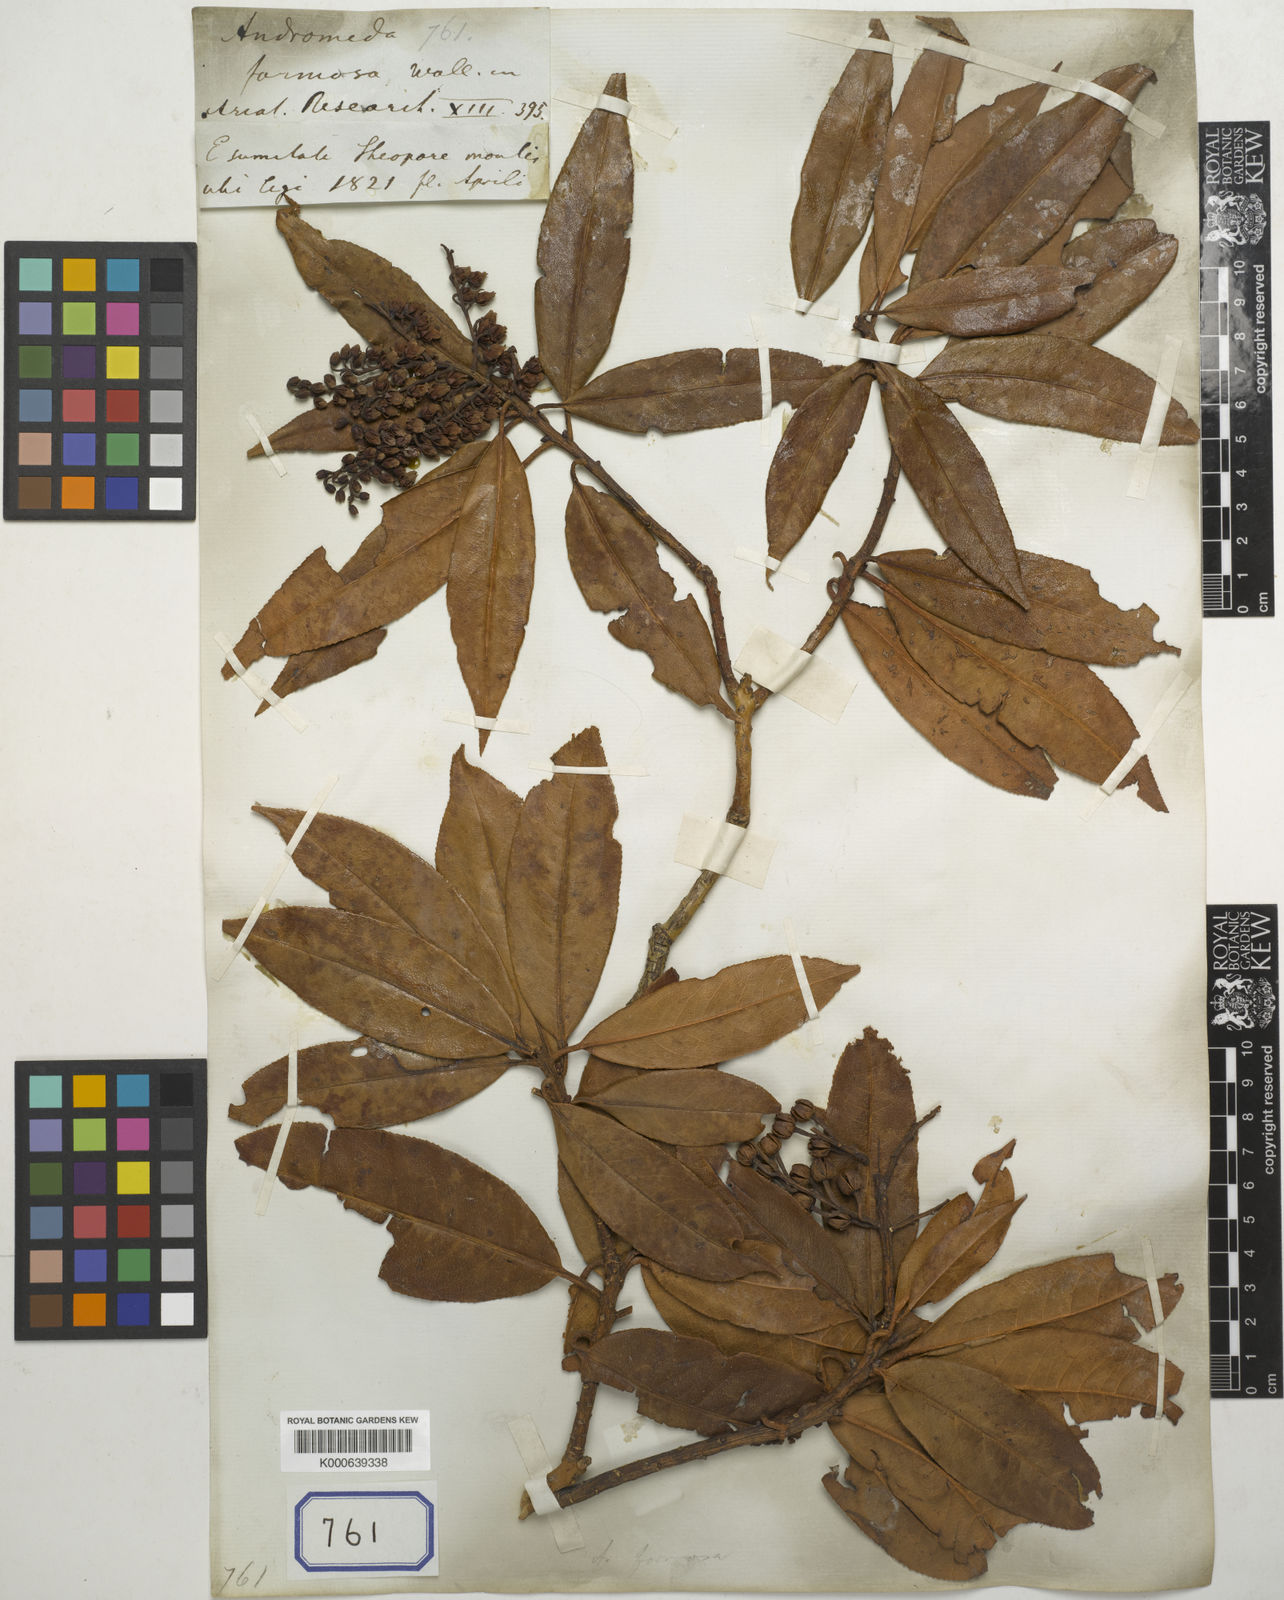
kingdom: Plantae
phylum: Tracheophyta
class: Magnoliopsida
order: Ericales
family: Ericaceae
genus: Pieris
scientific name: Pieris formosa
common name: Formosan pieris
